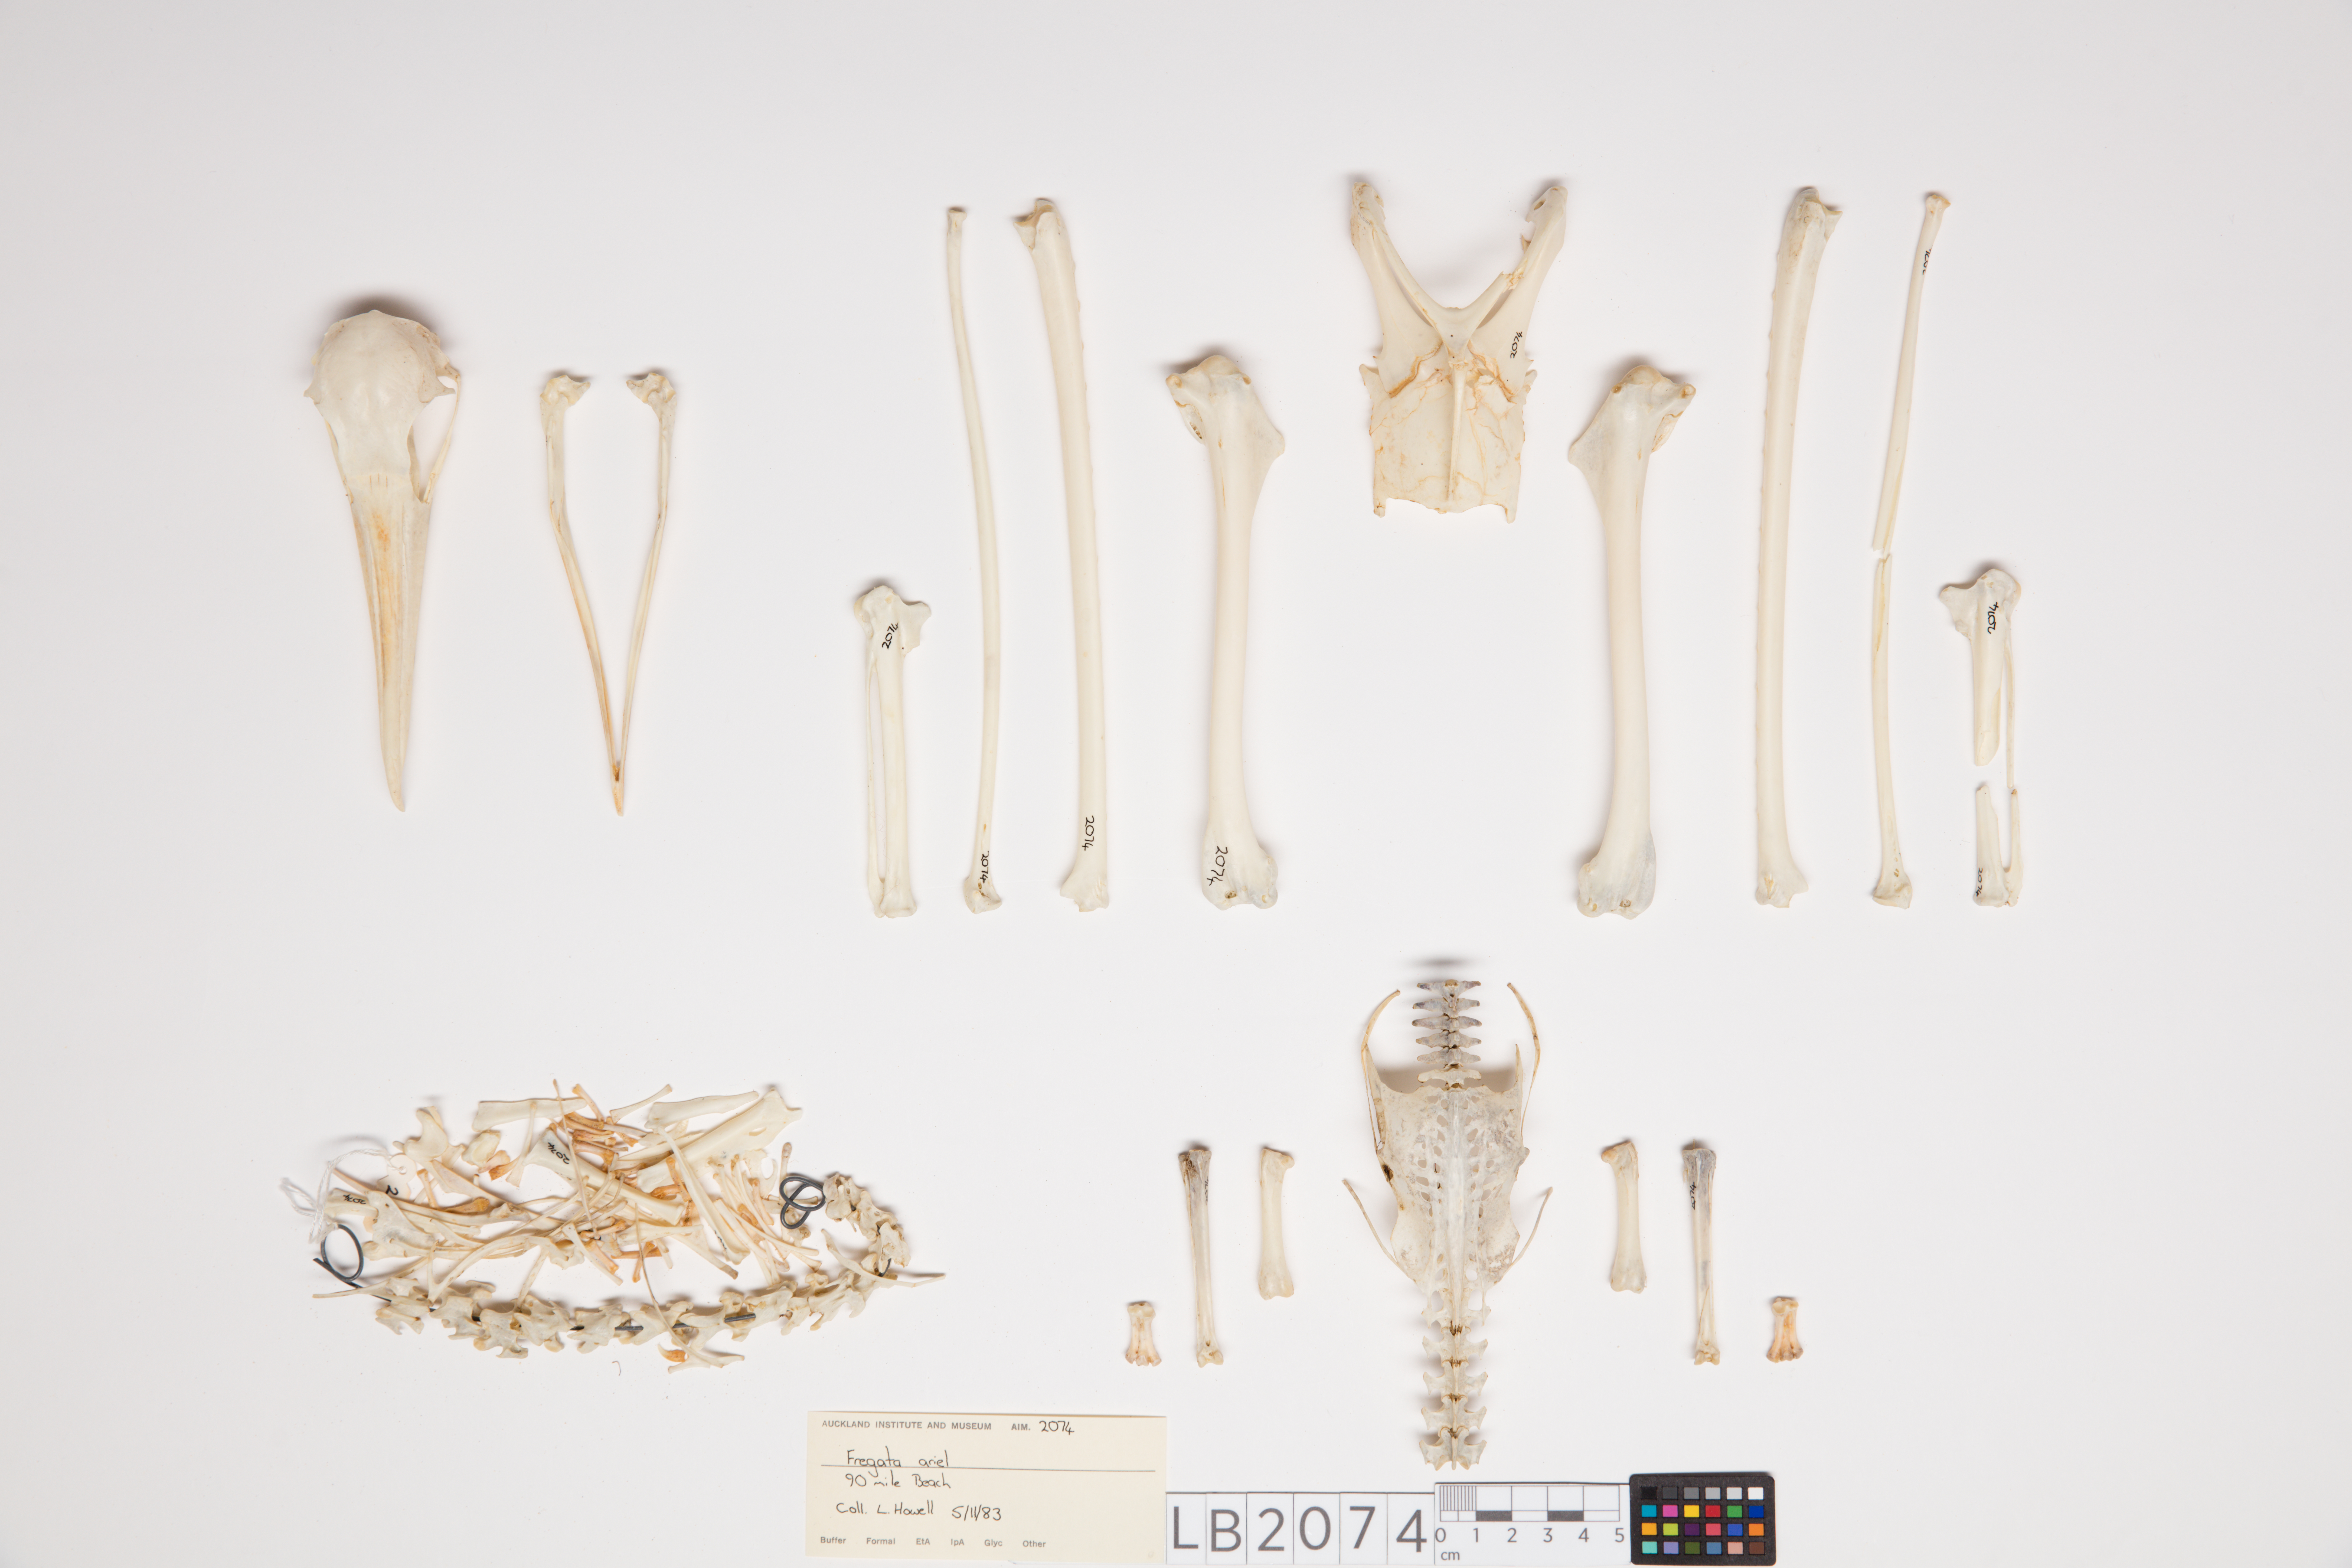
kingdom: Animalia
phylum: Chordata
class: Aves
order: Suliformes
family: Fregatidae
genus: Fregata
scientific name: Fregata ariel
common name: Lesser frigatebird
